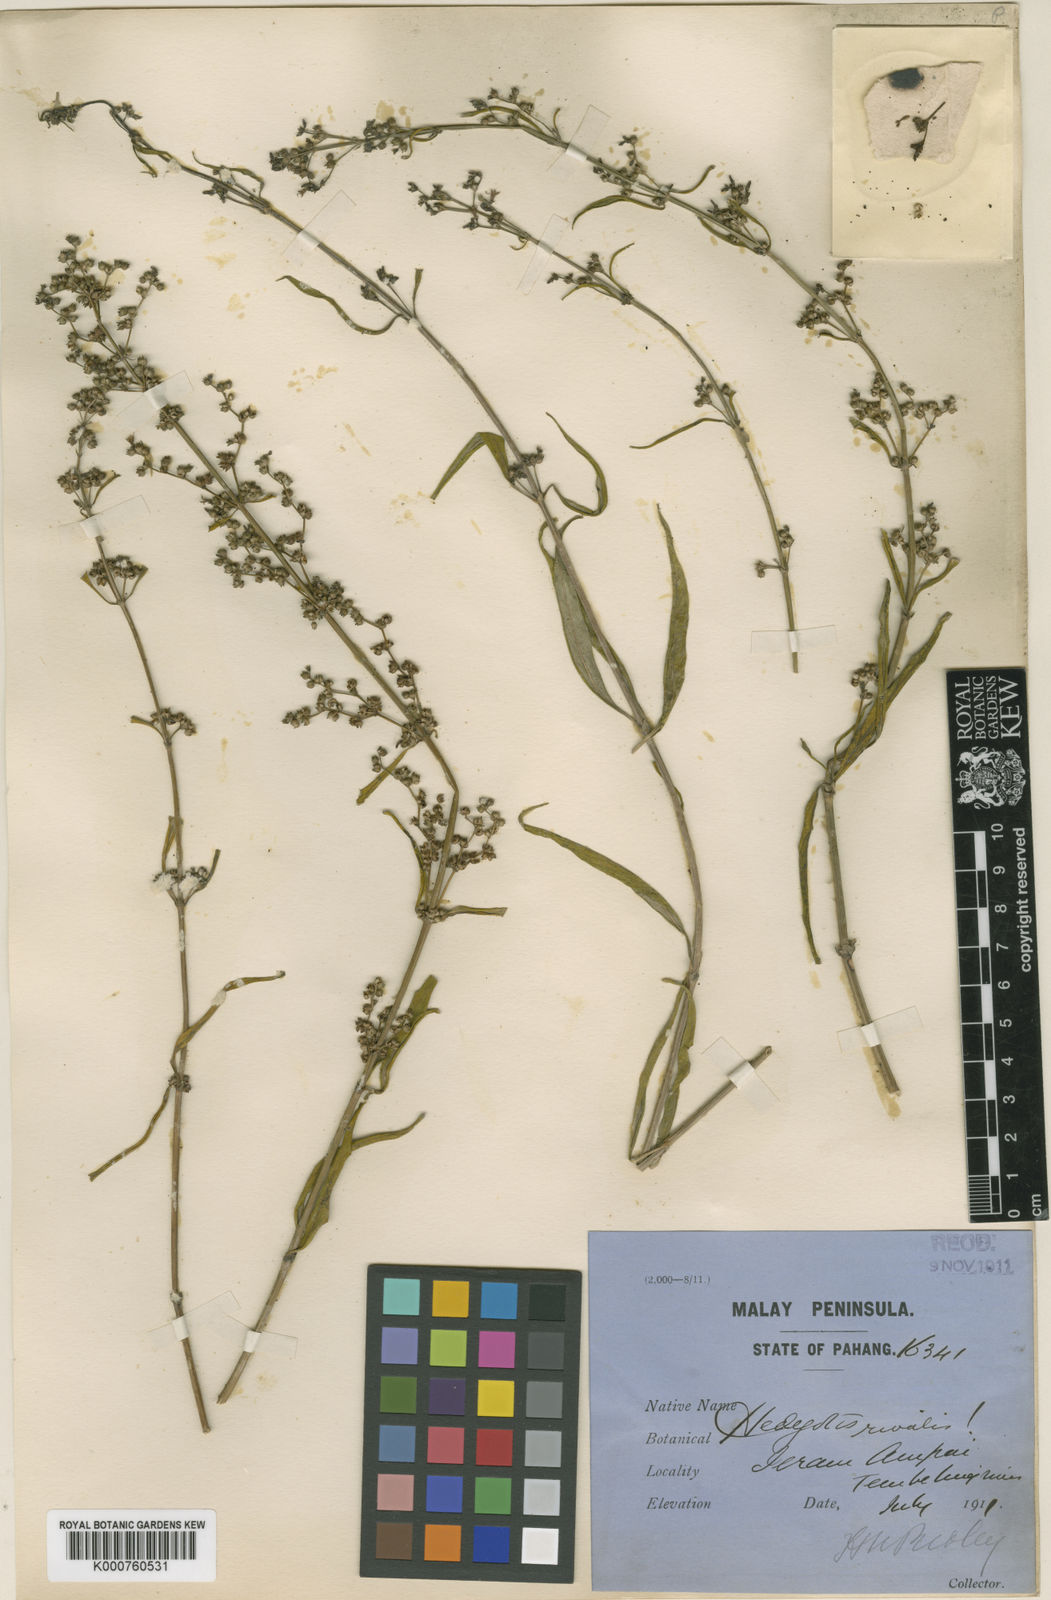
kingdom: Plantae
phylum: Tracheophyta
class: Magnoliopsida
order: Gentianales
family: Rubiaceae
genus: Oldenlandia
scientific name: Oldenlandia
